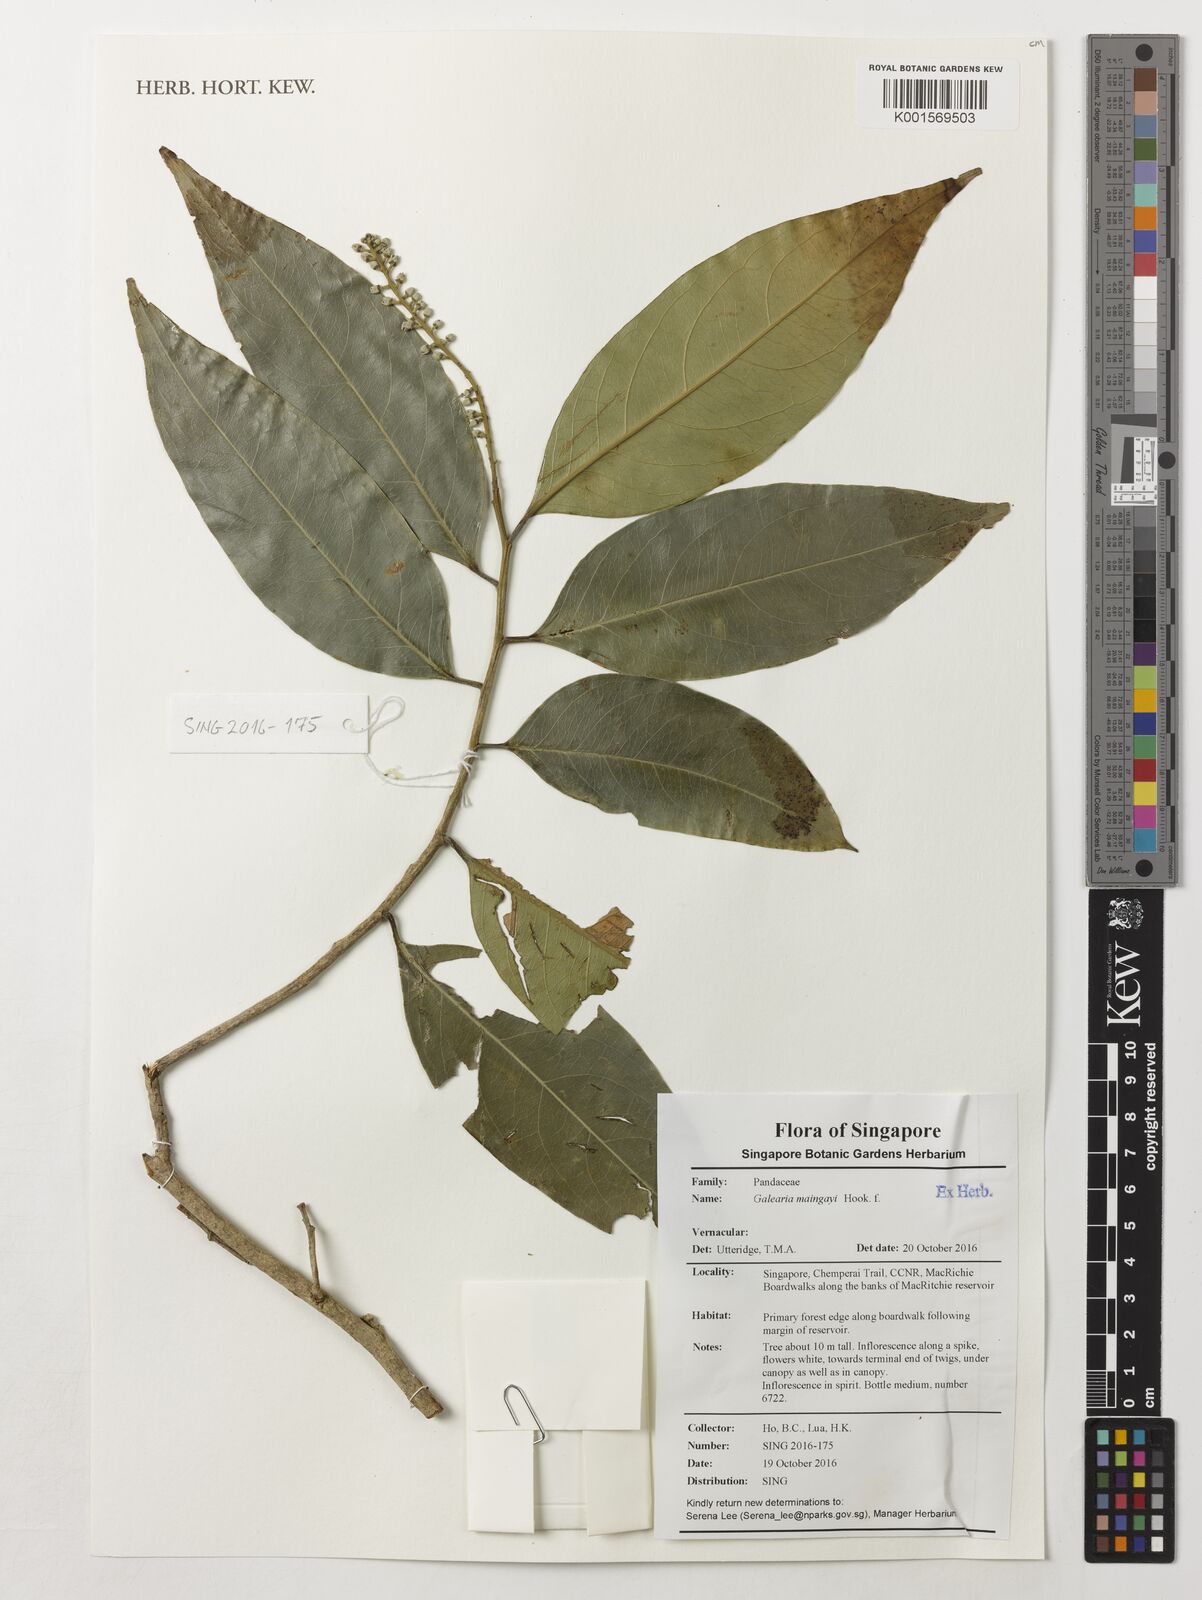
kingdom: Plantae
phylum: Tracheophyta
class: Magnoliopsida
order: Malpighiales
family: Pandaceae
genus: Galearia
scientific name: Galearia maingayi
